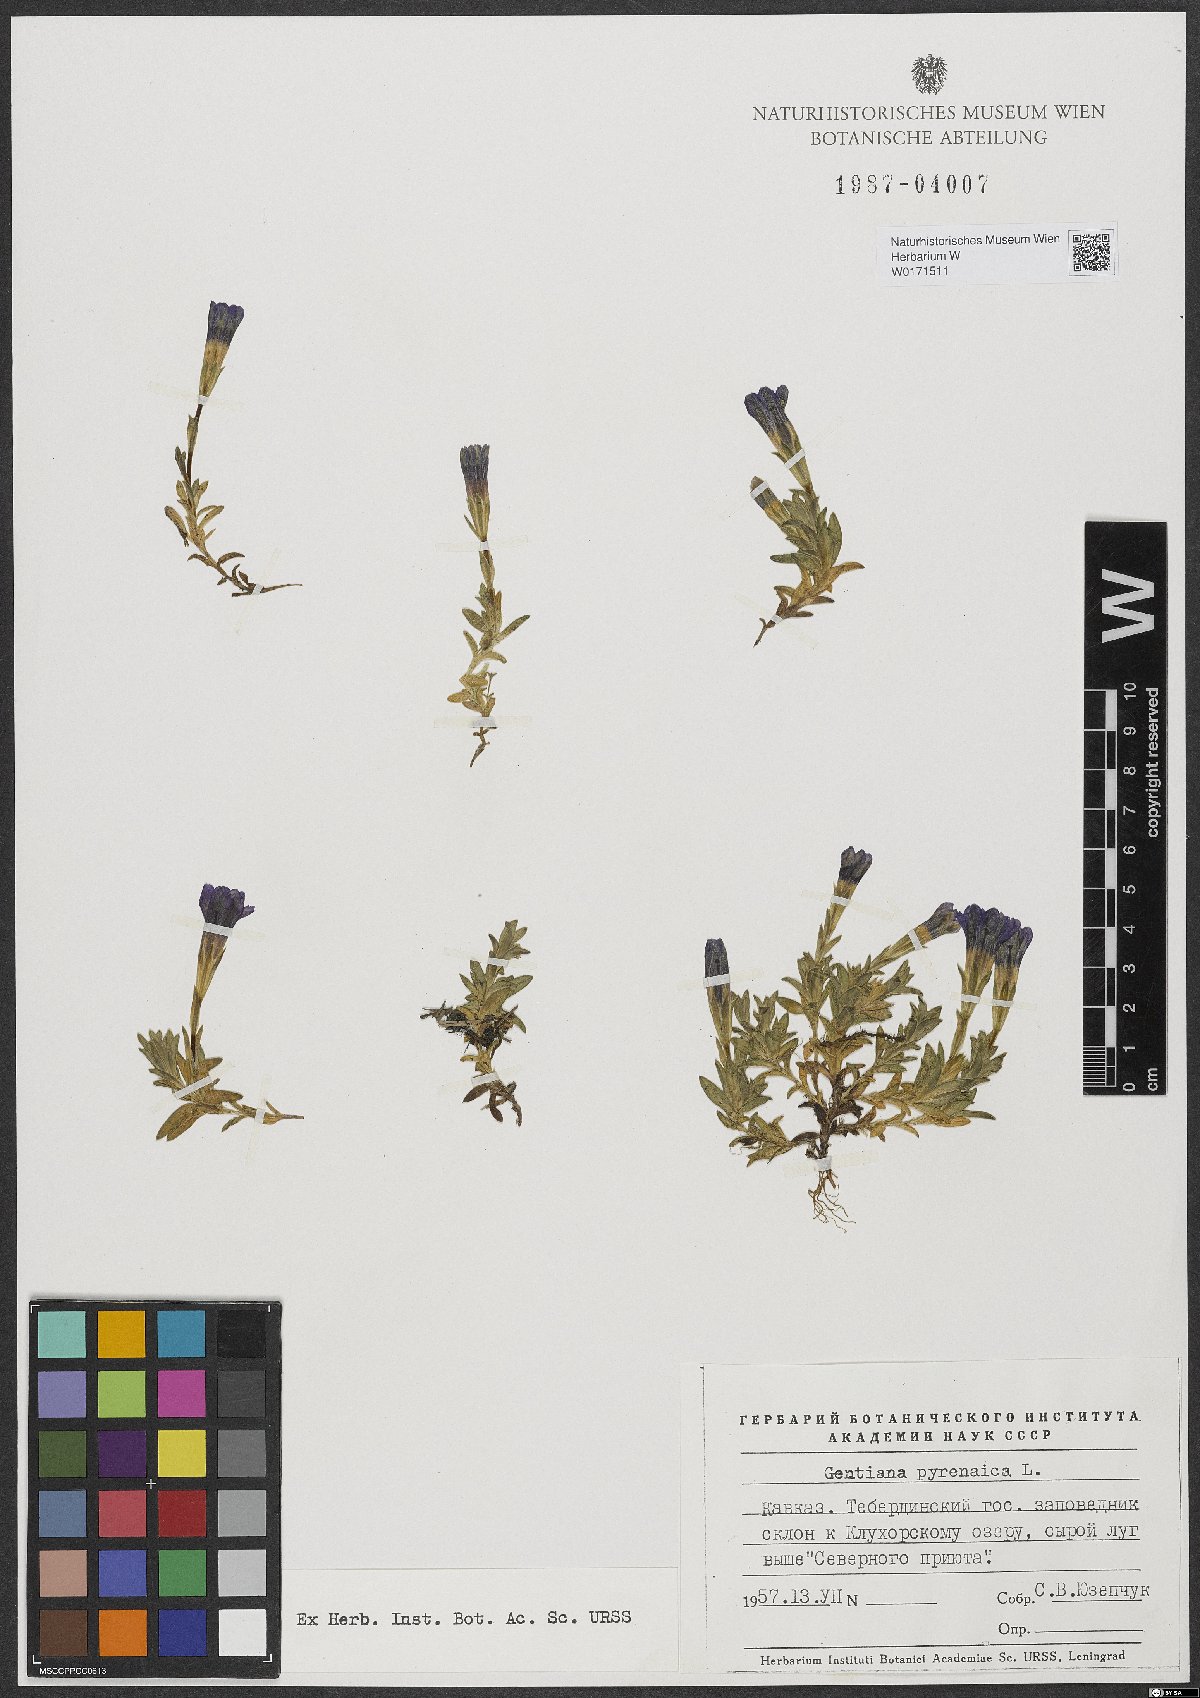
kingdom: Plantae
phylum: Tracheophyta
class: Magnoliopsida
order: Gentianales
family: Gentianaceae
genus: Gentiana
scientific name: Gentiana pyrenaica
